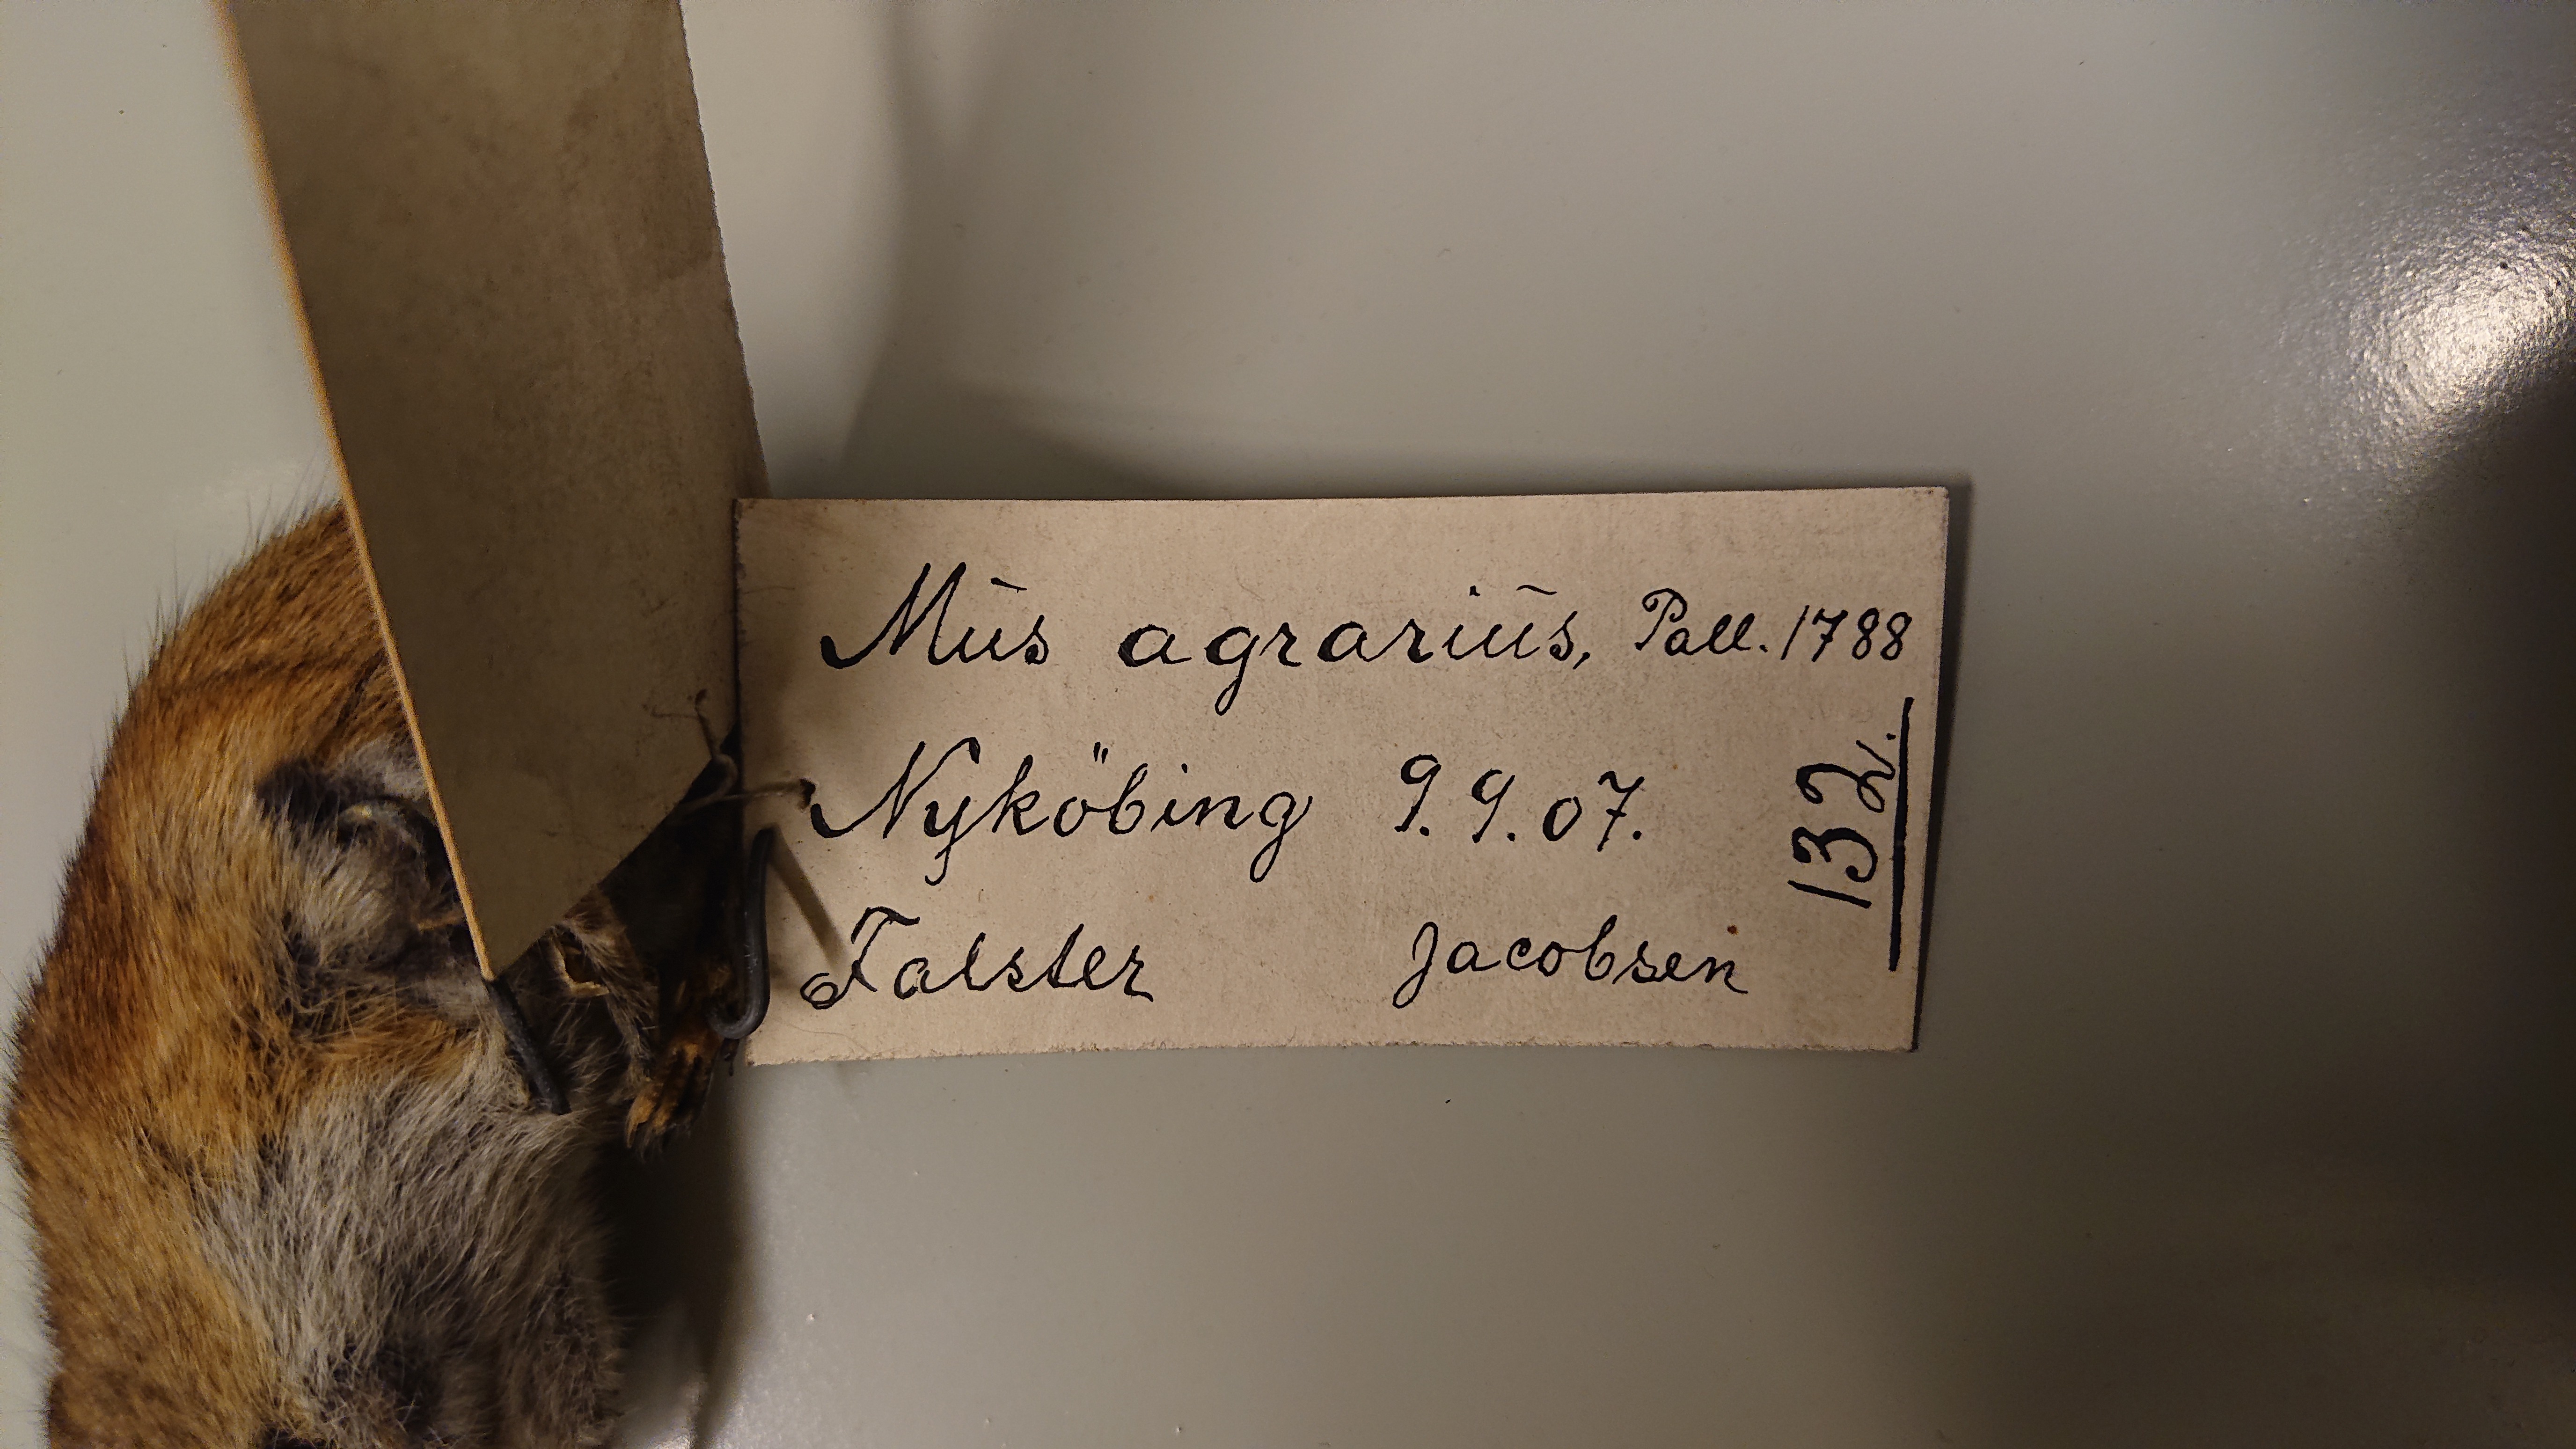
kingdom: Animalia
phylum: Chordata
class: Mammalia
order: Rodentia
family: Muridae
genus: Apodemus
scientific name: Apodemus agrarius
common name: Striped field mouse
